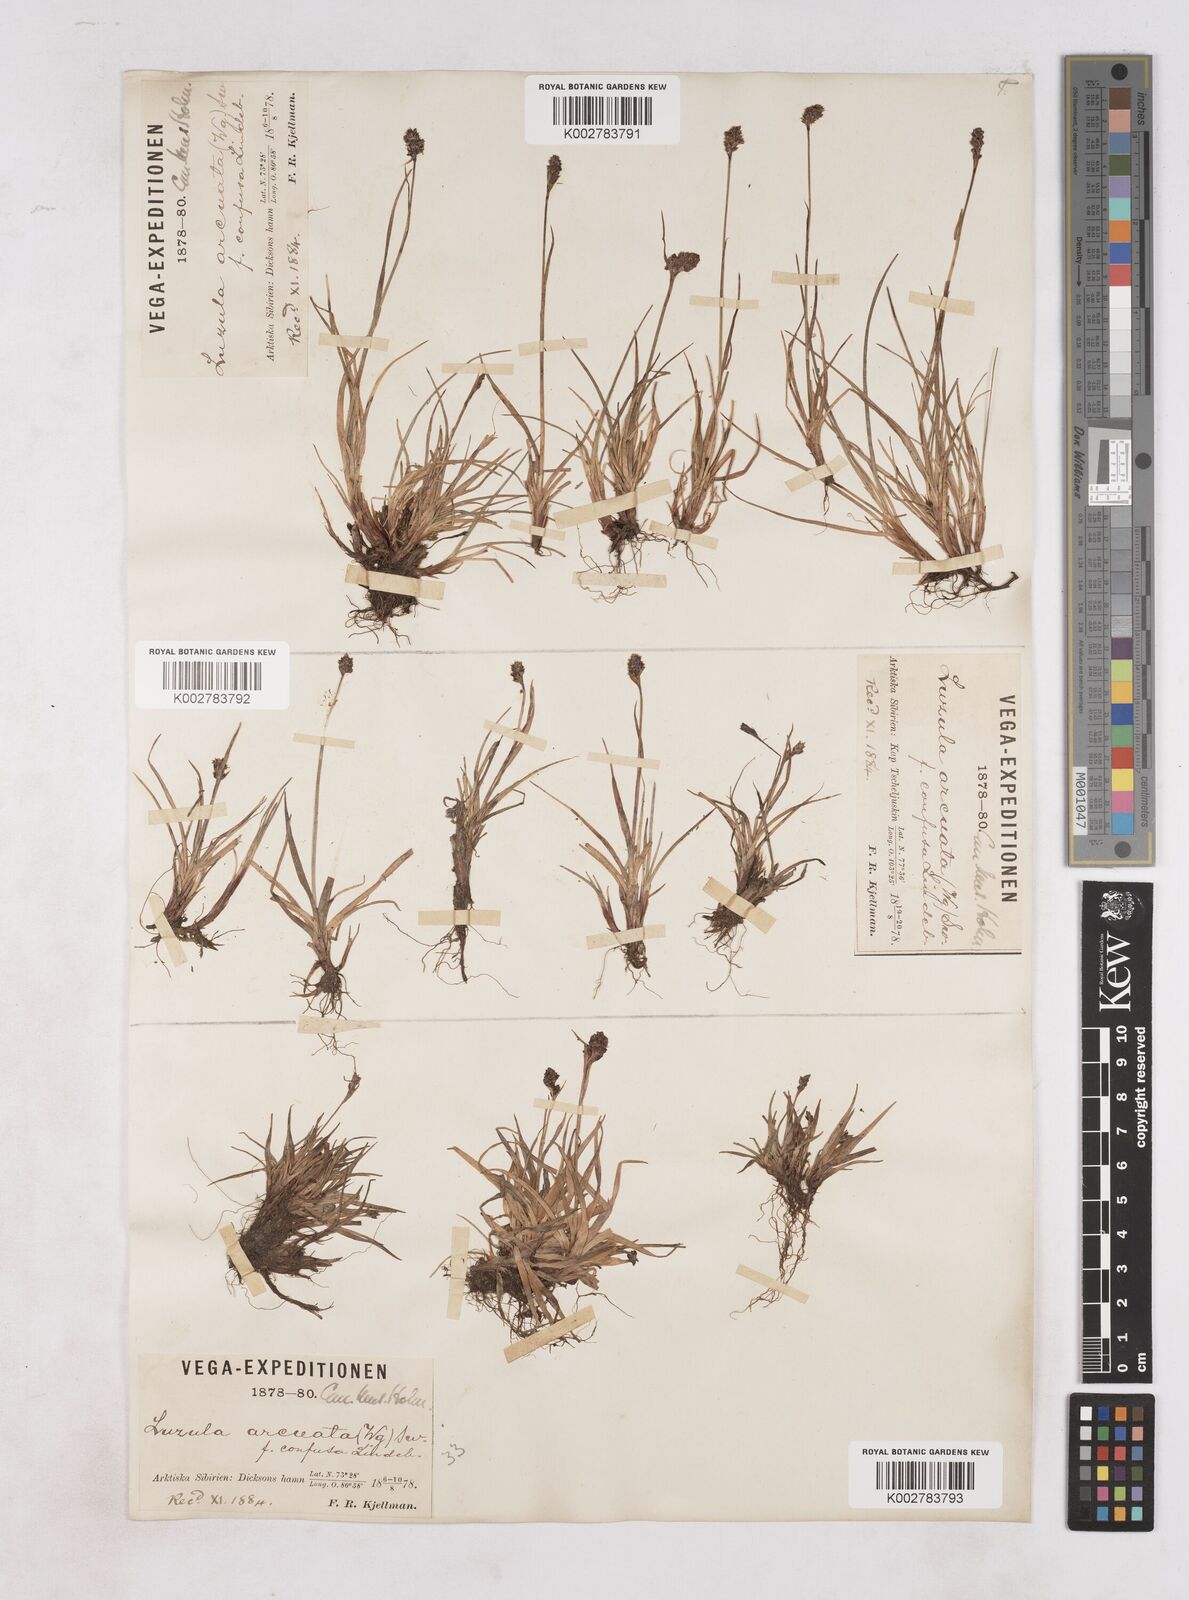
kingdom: Plantae
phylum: Tracheophyta
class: Liliopsida
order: Poales
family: Juncaceae
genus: Luzula
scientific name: Luzula nivalis
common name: Arctic woodrush
